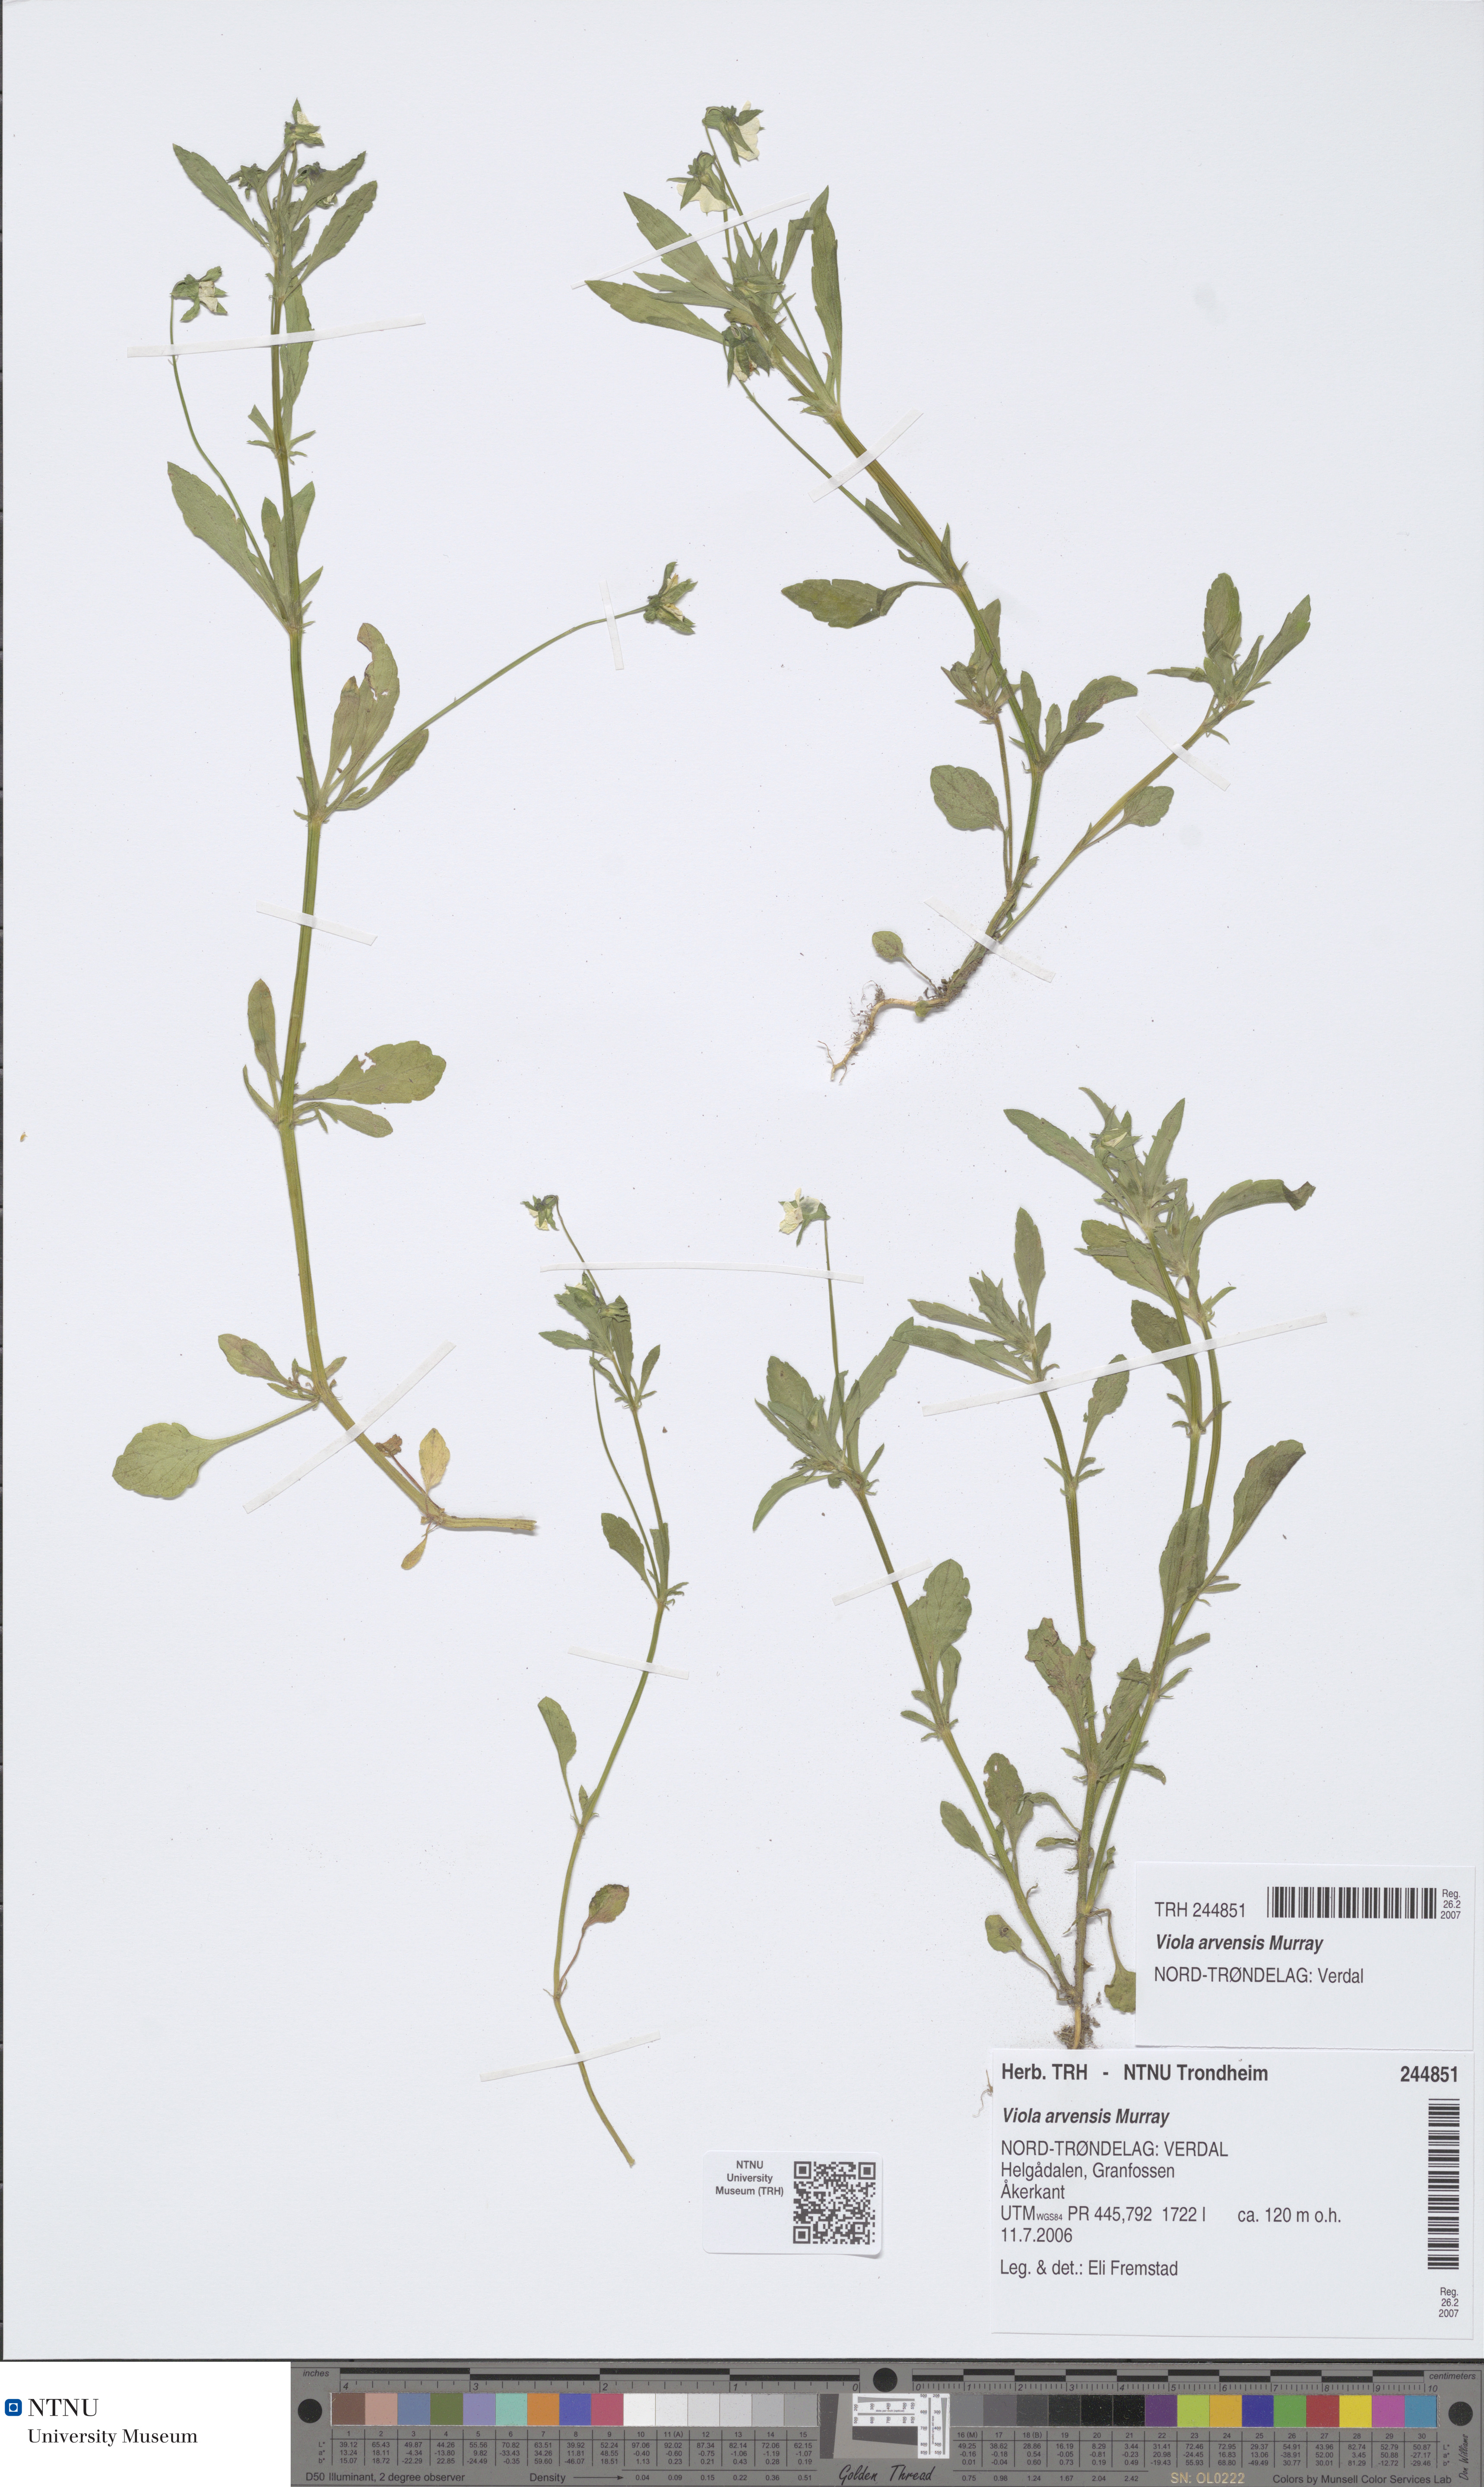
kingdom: Plantae
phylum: Tracheophyta
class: Magnoliopsida
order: Malpighiales
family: Violaceae
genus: Viola
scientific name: Viola arvensis
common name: Field pansy
